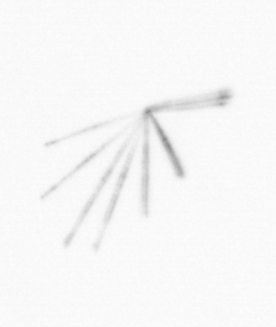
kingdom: Chromista
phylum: Ochrophyta
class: Bacillariophyceae
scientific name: Bacillariophyceae
